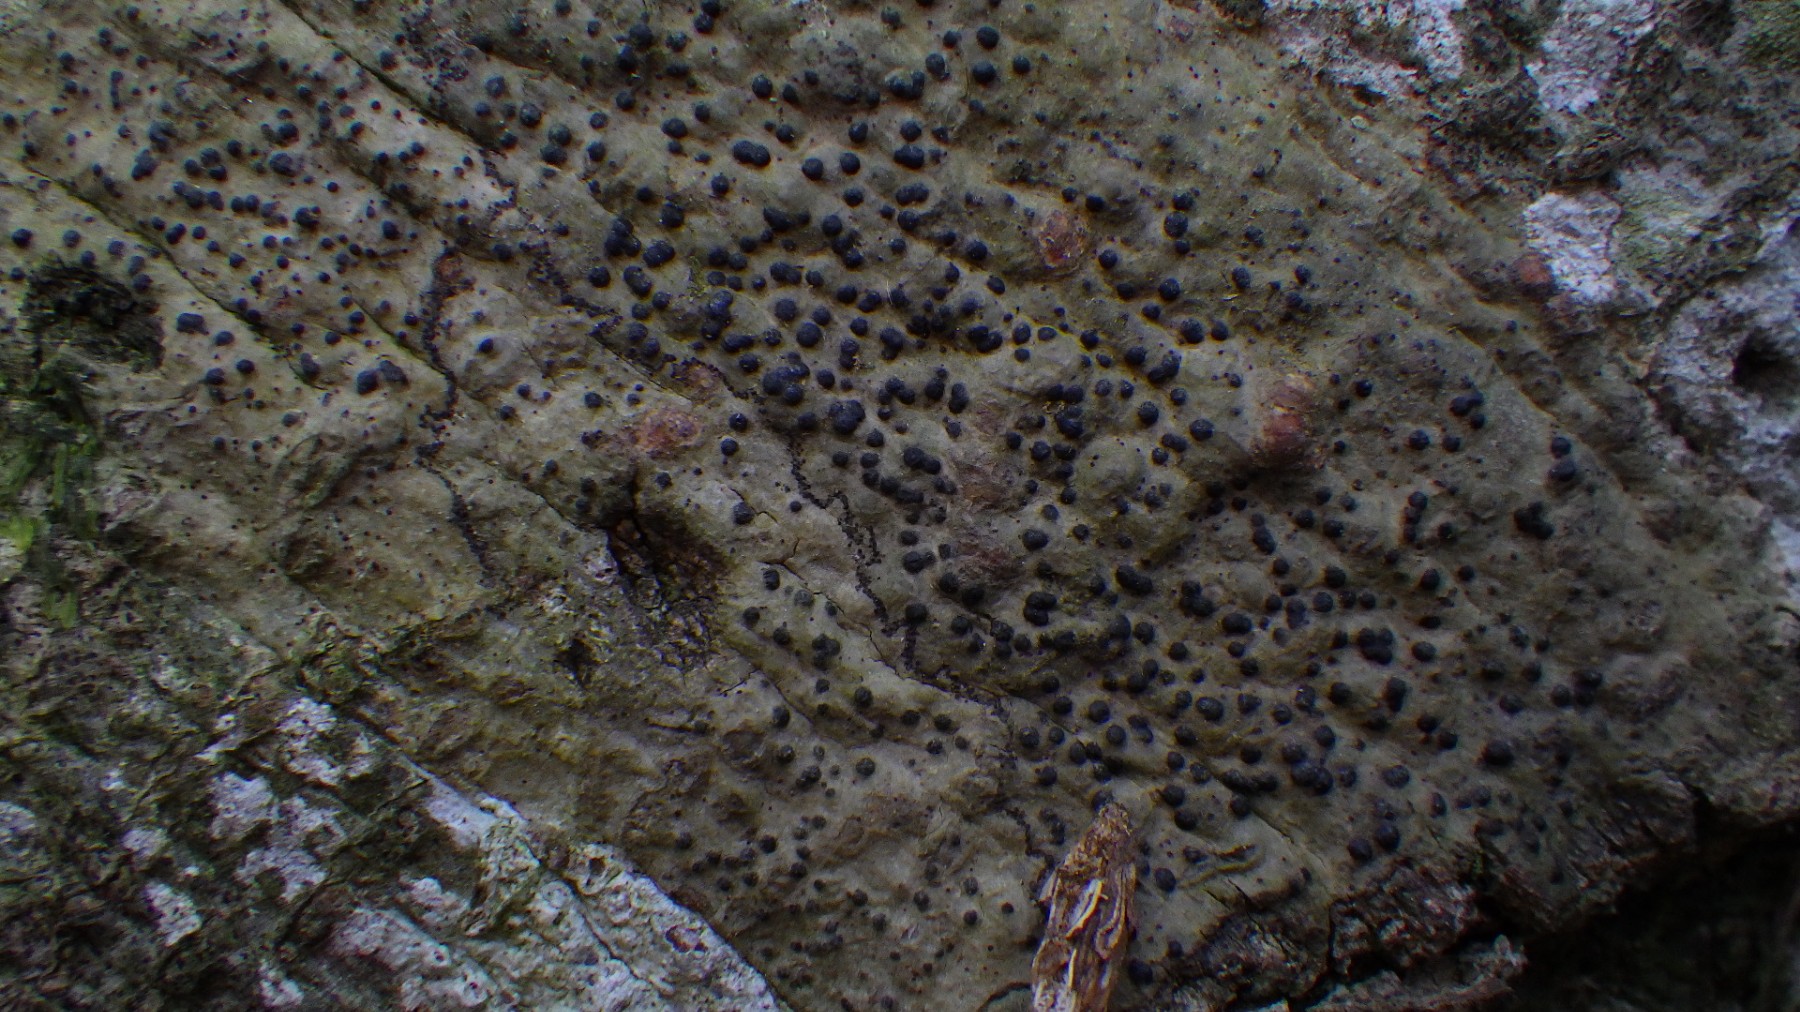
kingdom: Fungi
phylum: Ascomycota
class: Eurotiomycetes
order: Pyrenulales
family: Pyrenulaceae
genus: Pyrenula
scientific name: Pyrenula nitida
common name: glinsende kernelav
